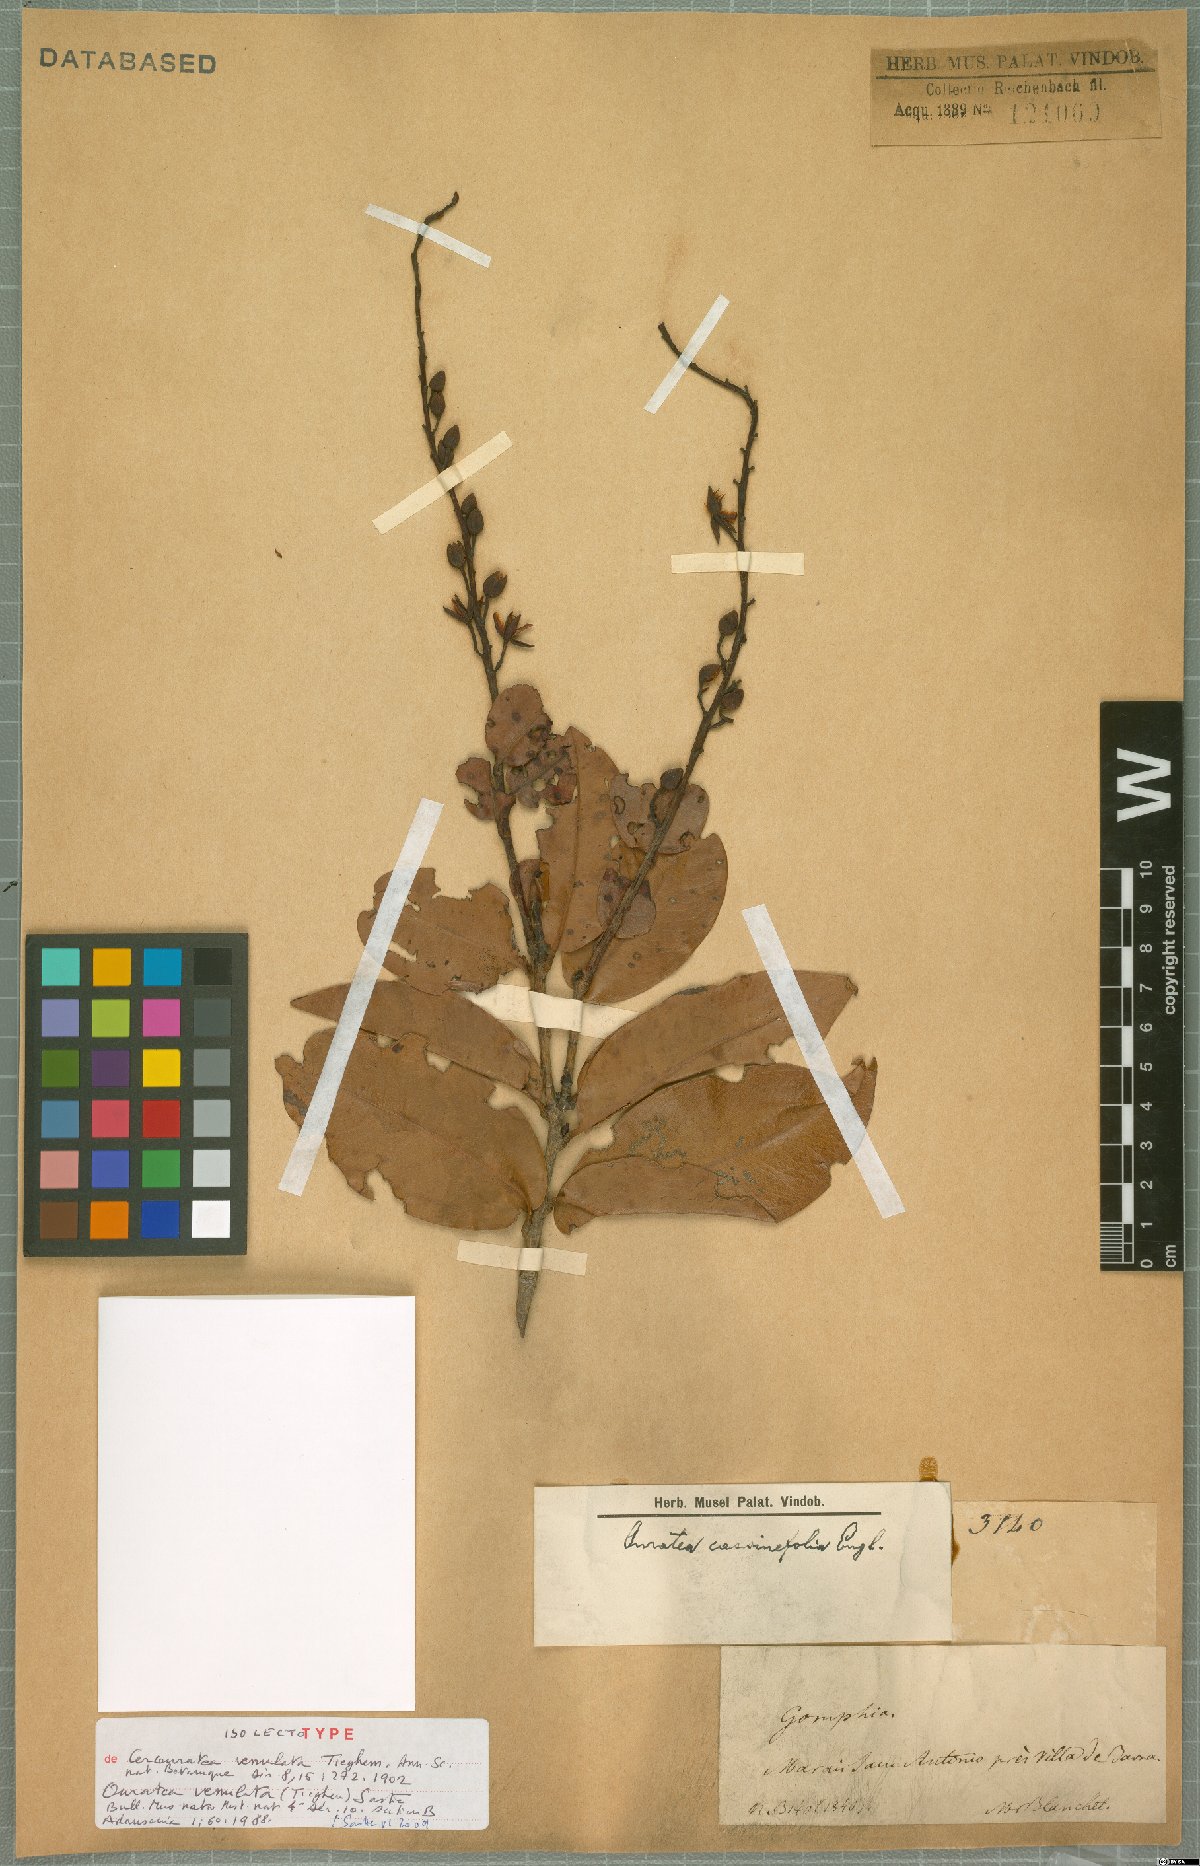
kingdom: Plantae
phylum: Tracheophyta
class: Magnoliopsida
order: Malpighiales
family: Ochnaceae
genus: Ouratea
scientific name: Ouratea venulata
